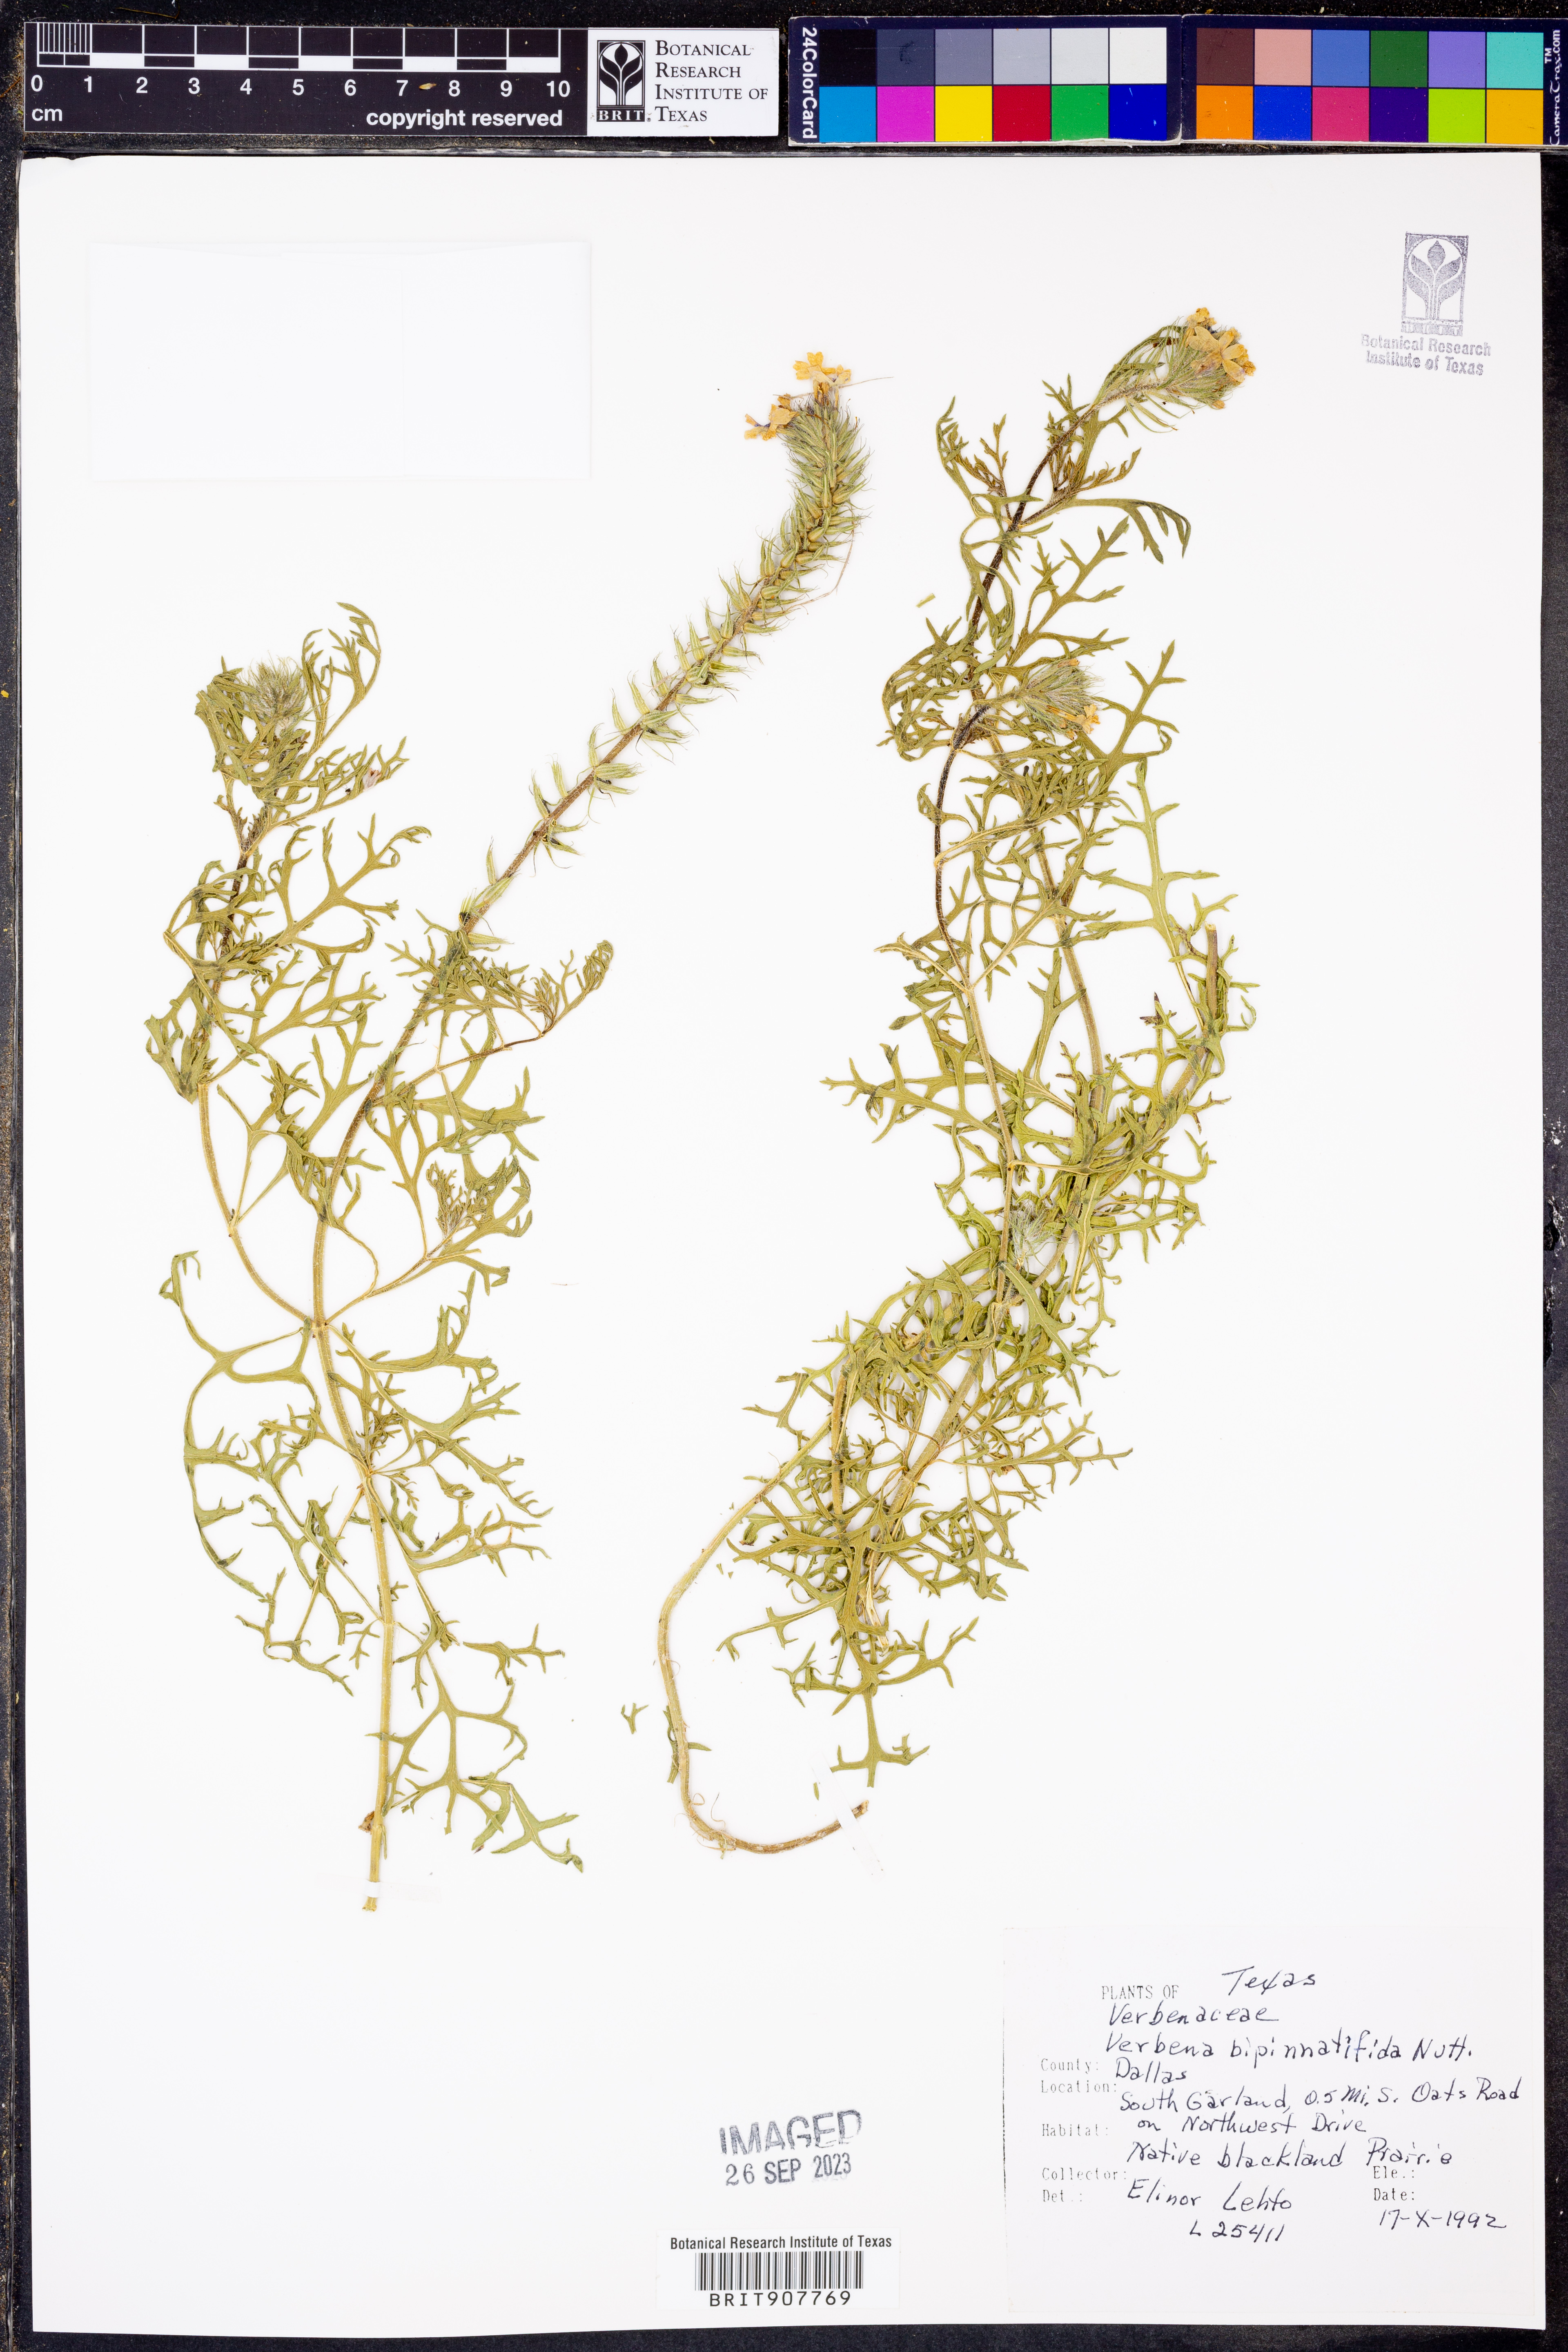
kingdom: Plantae
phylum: Tracheophyta
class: Magnoliopsida
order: Lamiales
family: Verbenaceae
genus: Verbena
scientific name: Verbena bipinnatifida
